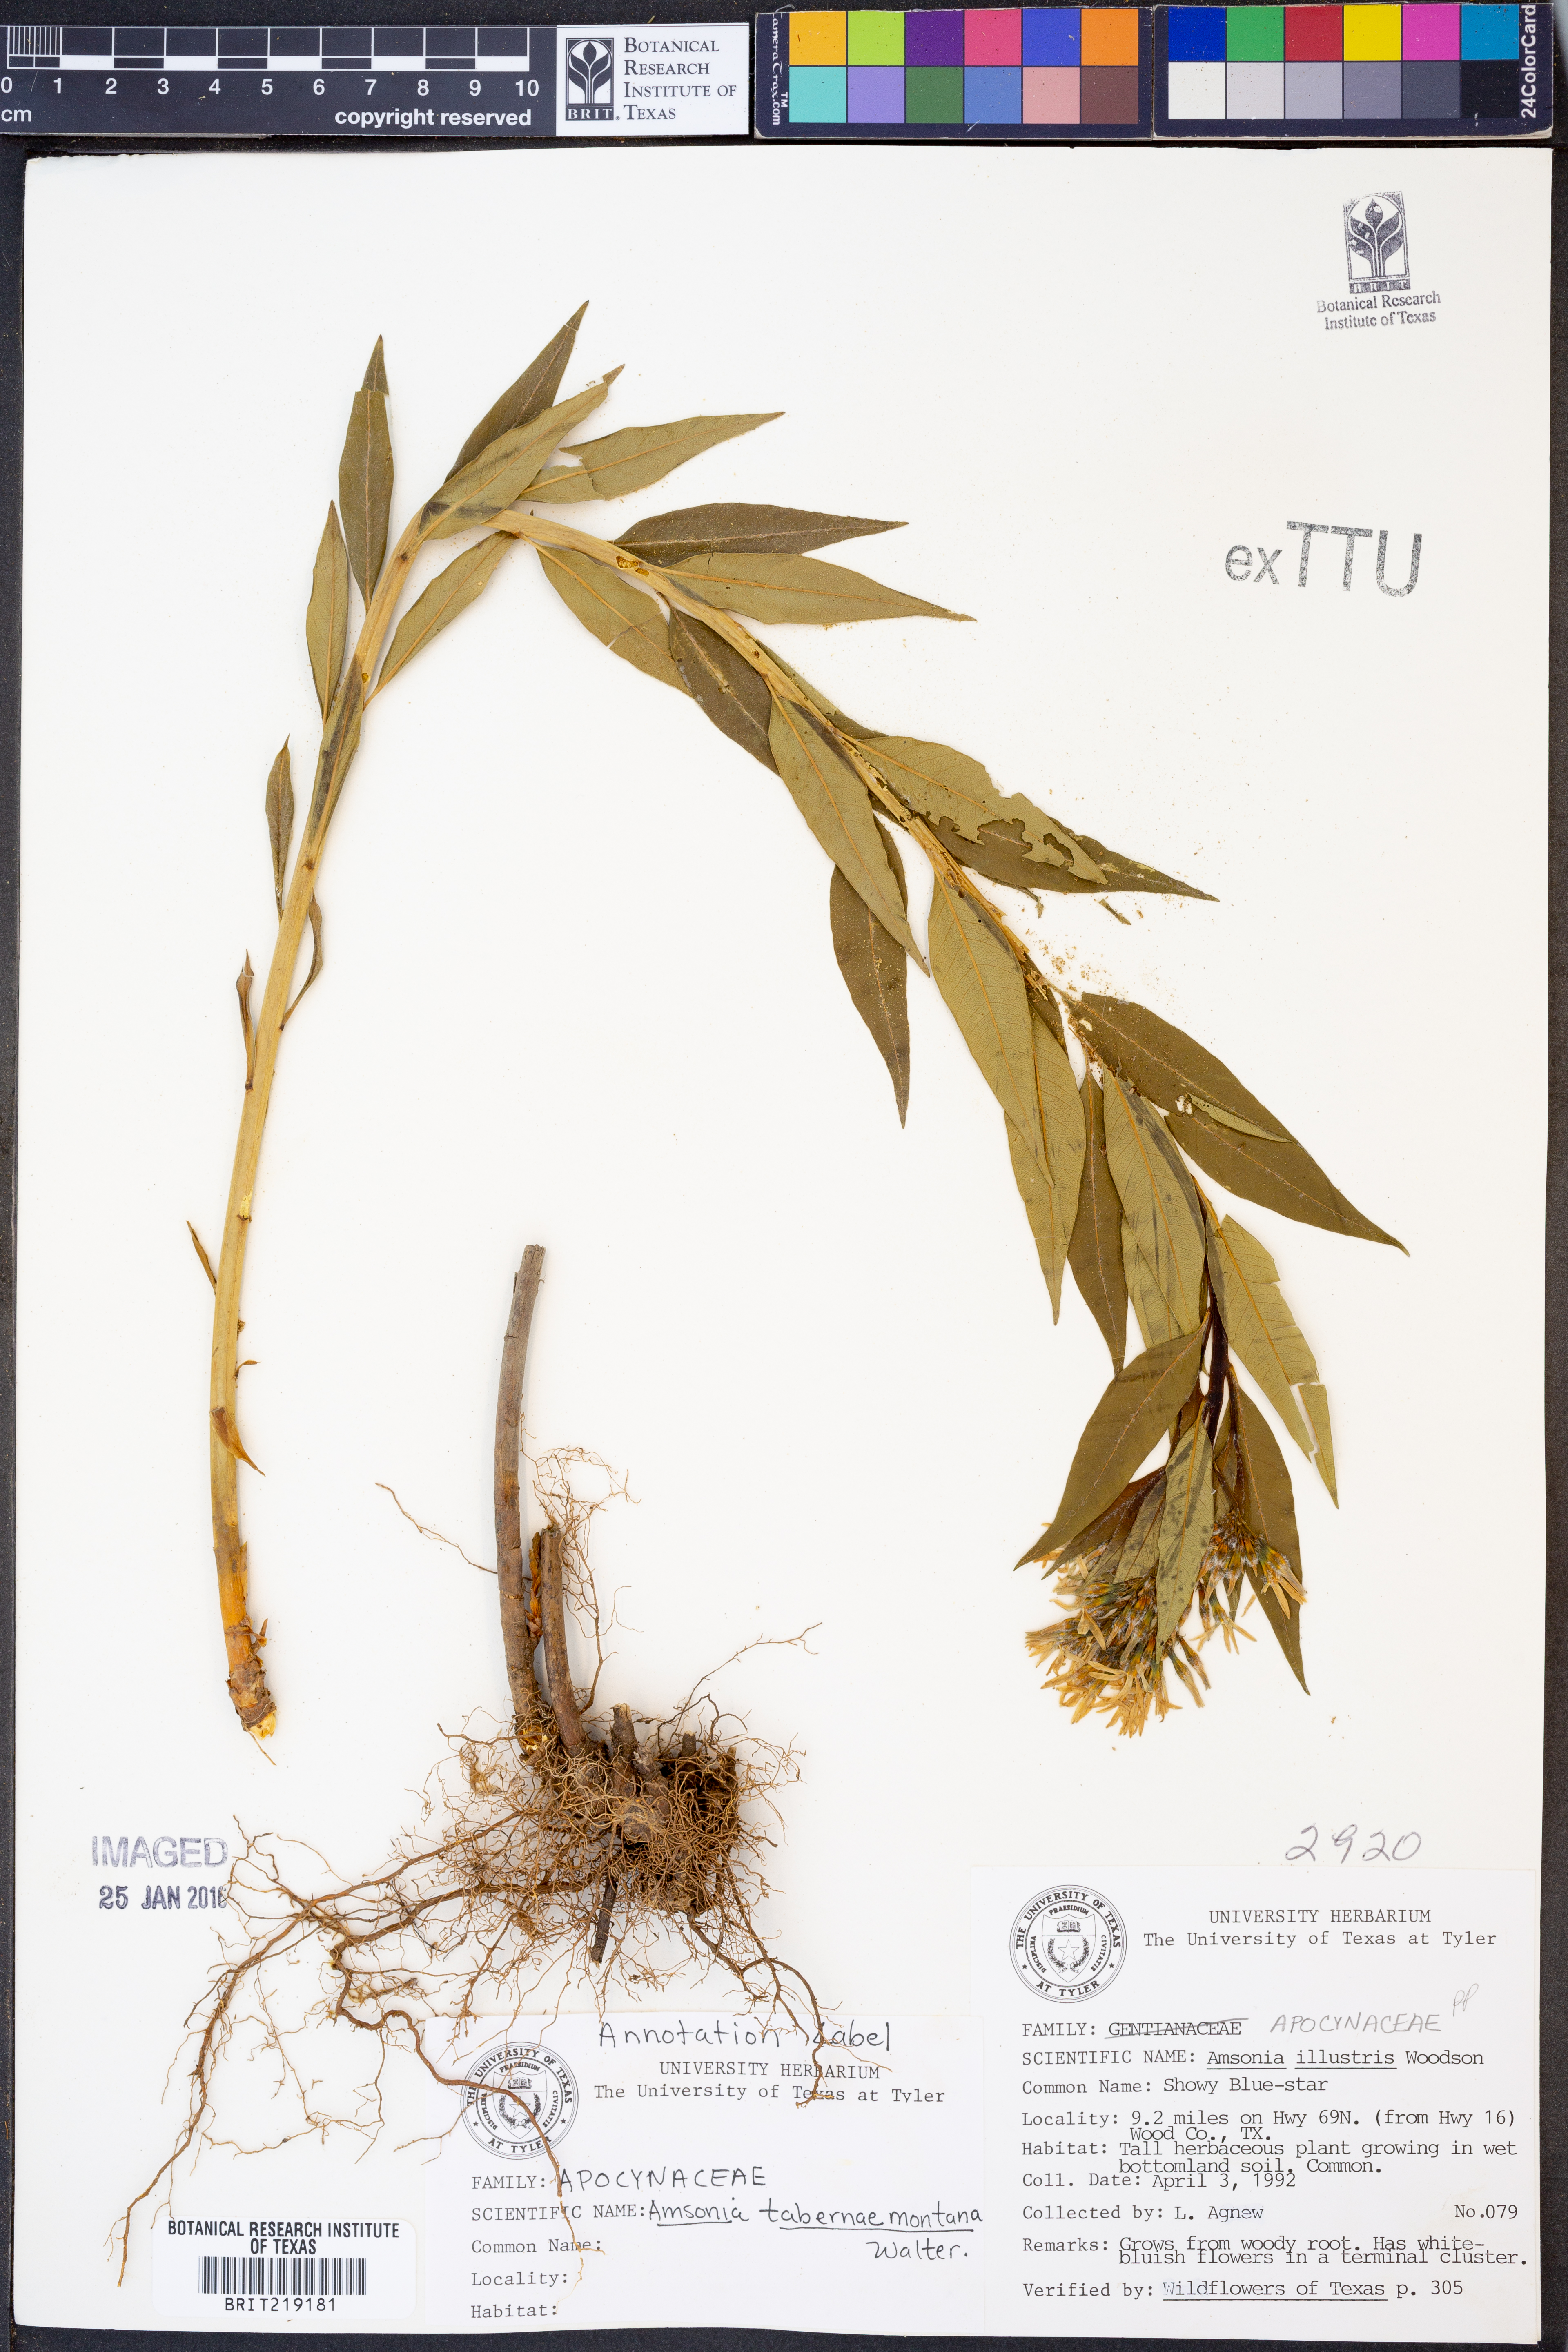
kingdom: Plantae
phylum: Tracheophyta
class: Magnoliopsida
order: Gentianales
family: Apocynaceae
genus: Amsonia
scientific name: Amsonia tabernaemontana
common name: Texas-star
